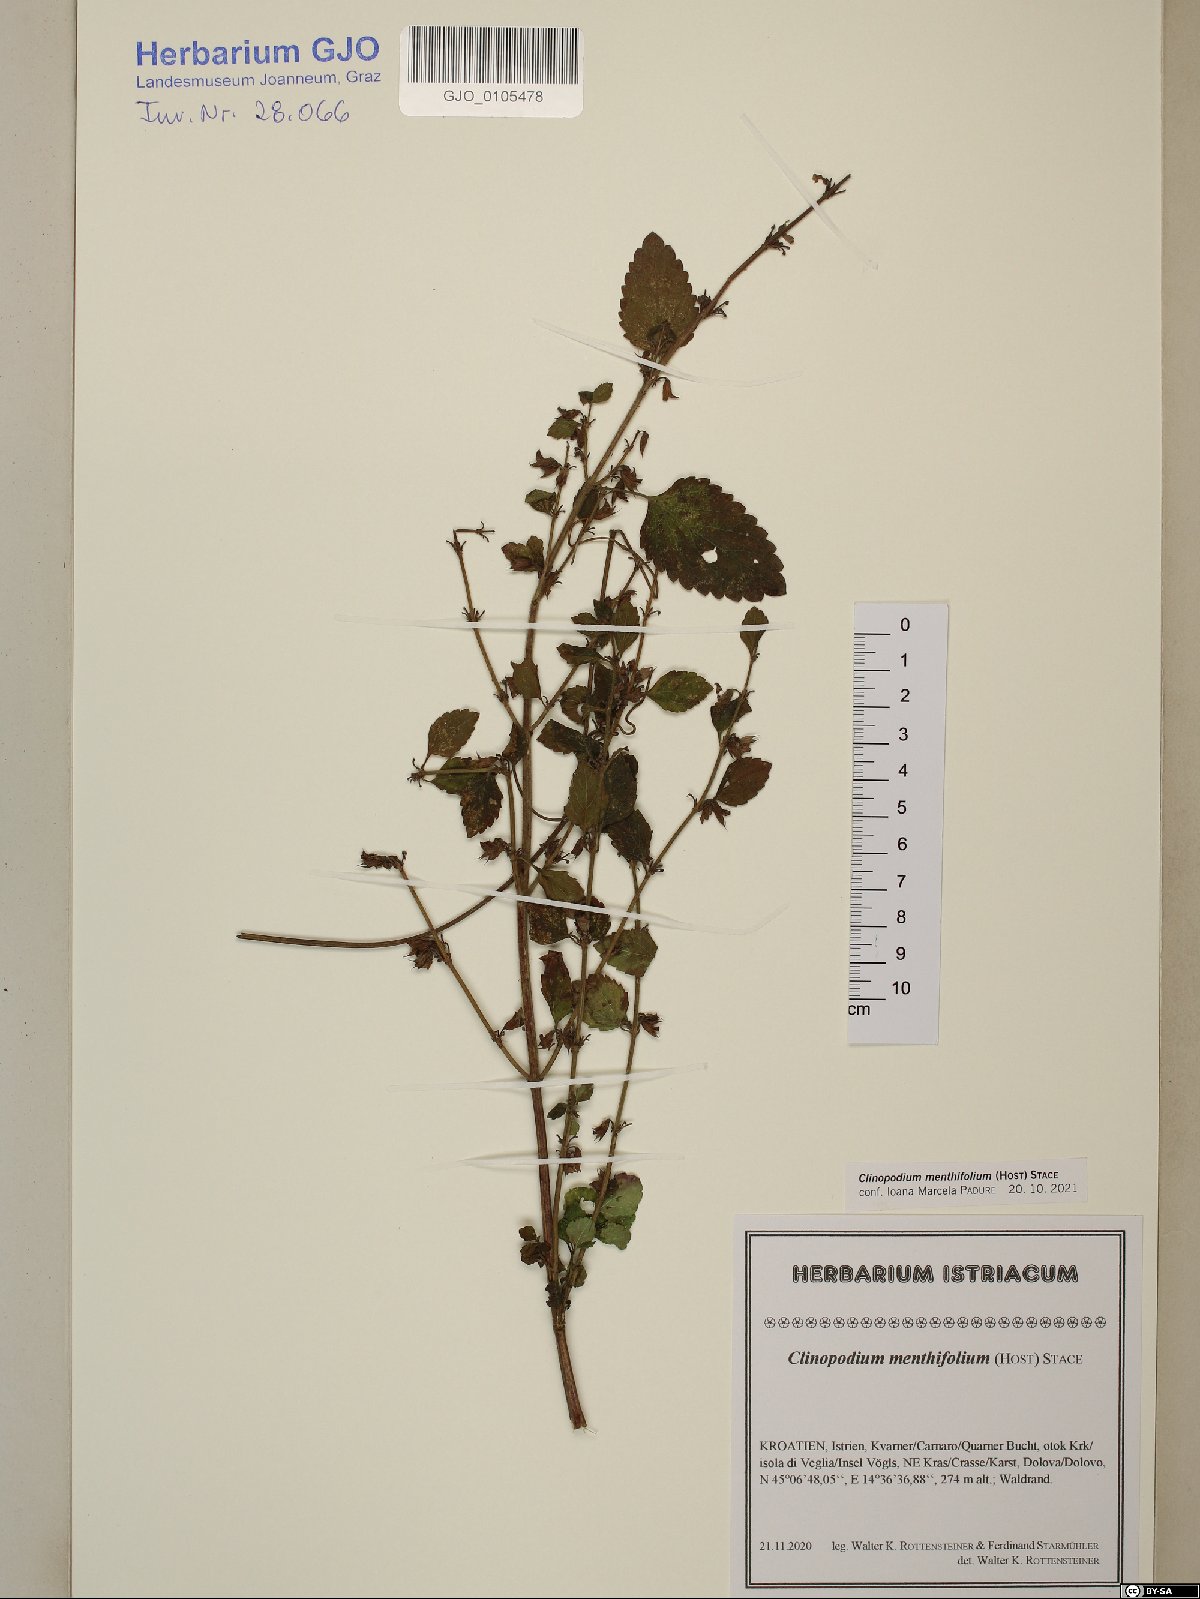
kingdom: Plantae
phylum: Tracheophyta
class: Magnoliopsida
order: Lamiales
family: Lamiaceae
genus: Clinopodium
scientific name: Clinopodium menthifolium
